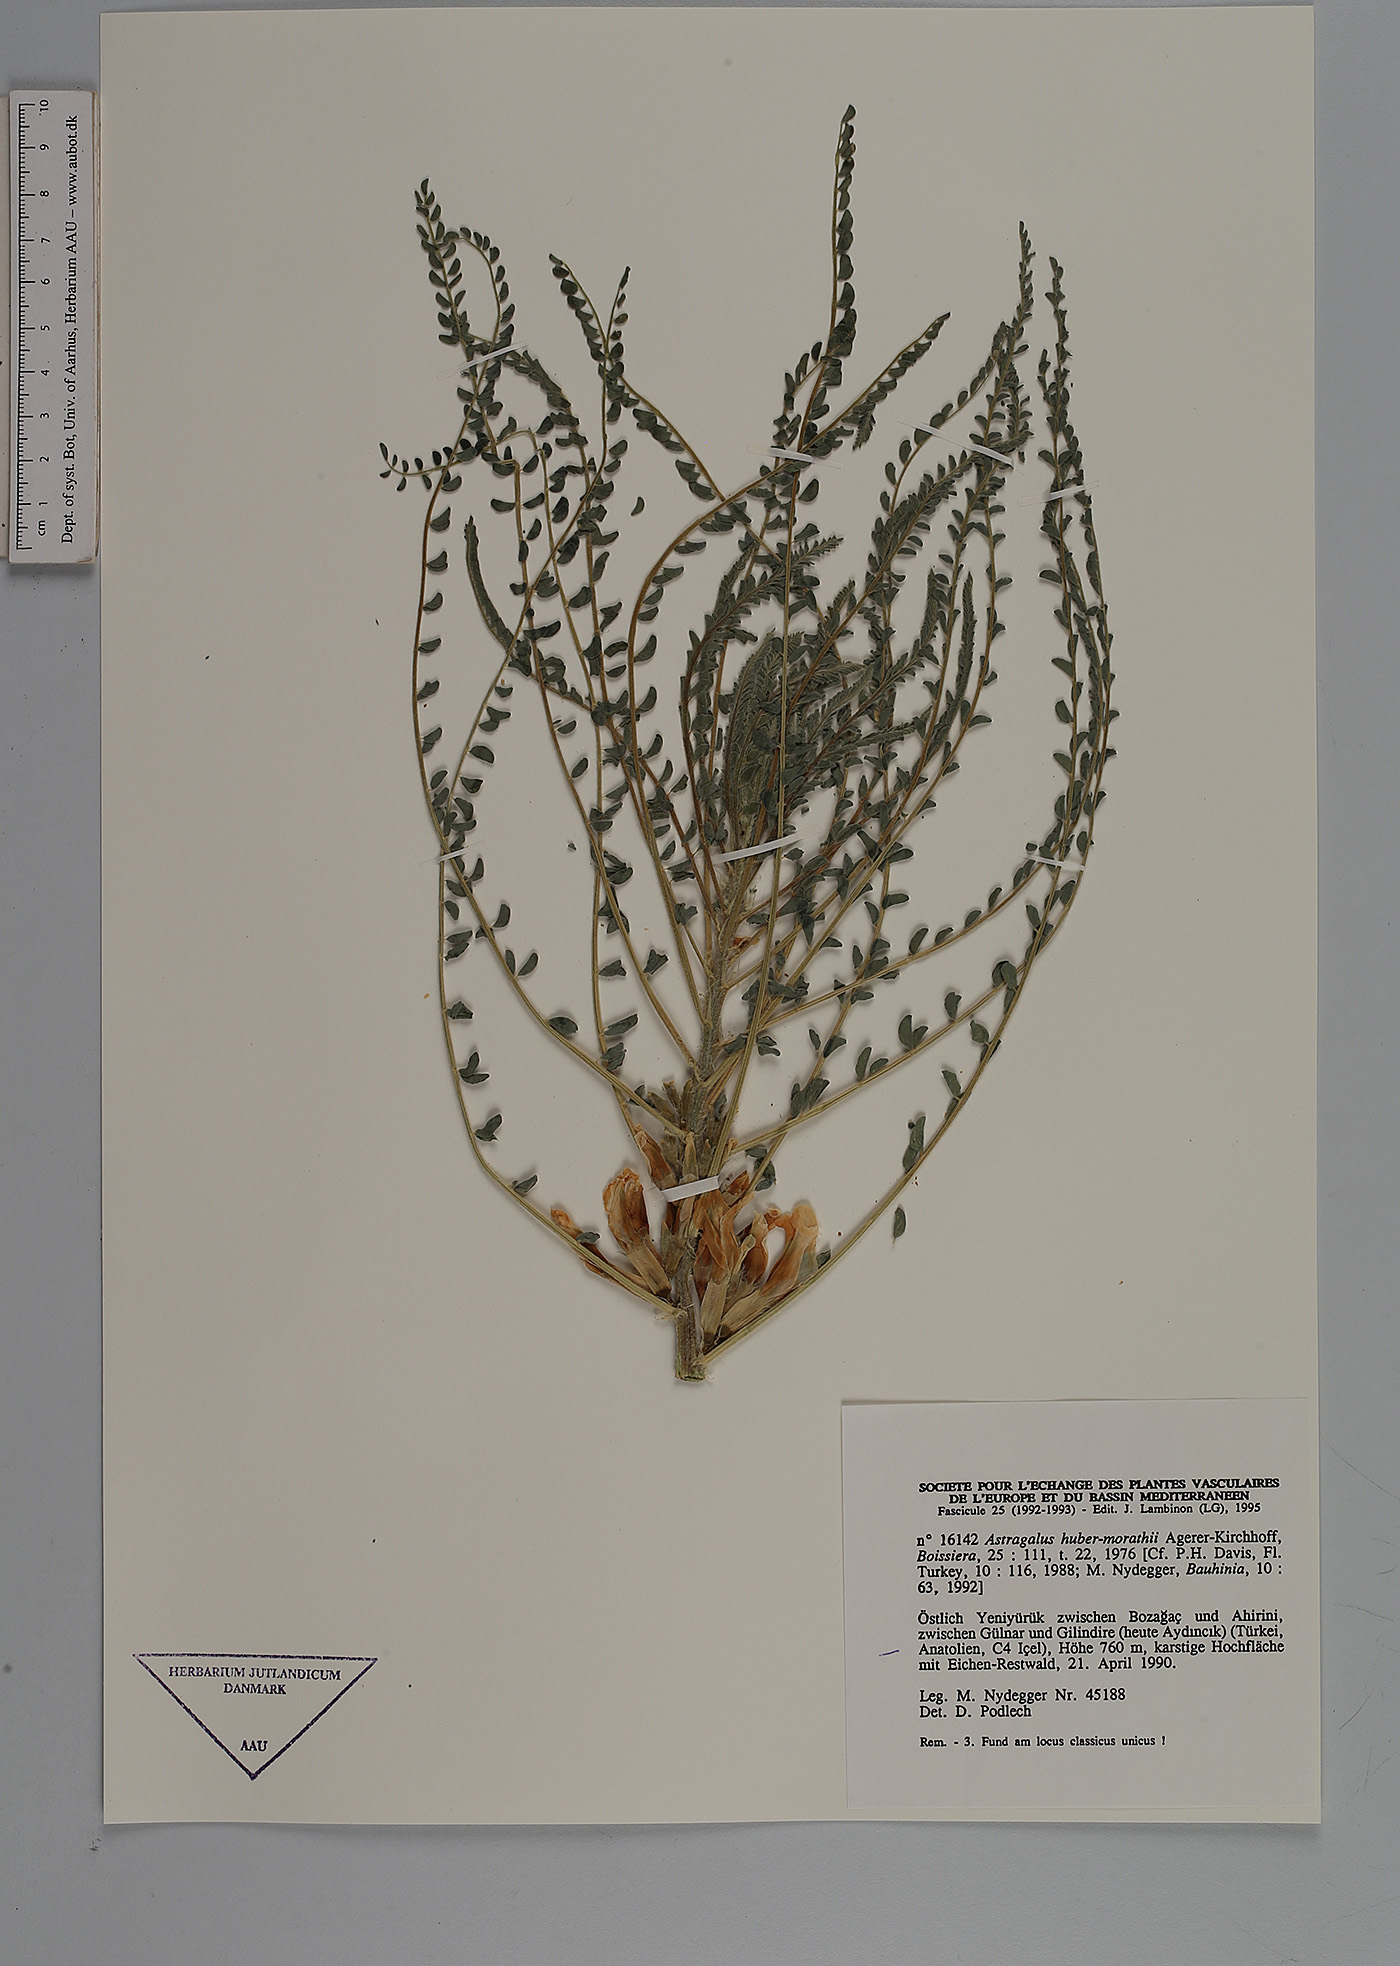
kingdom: Plantae
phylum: Tracheophyta
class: Magnoliopsida
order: Fabales
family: Fabaceae
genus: Astragalus
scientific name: Astragalus huber-morathii
